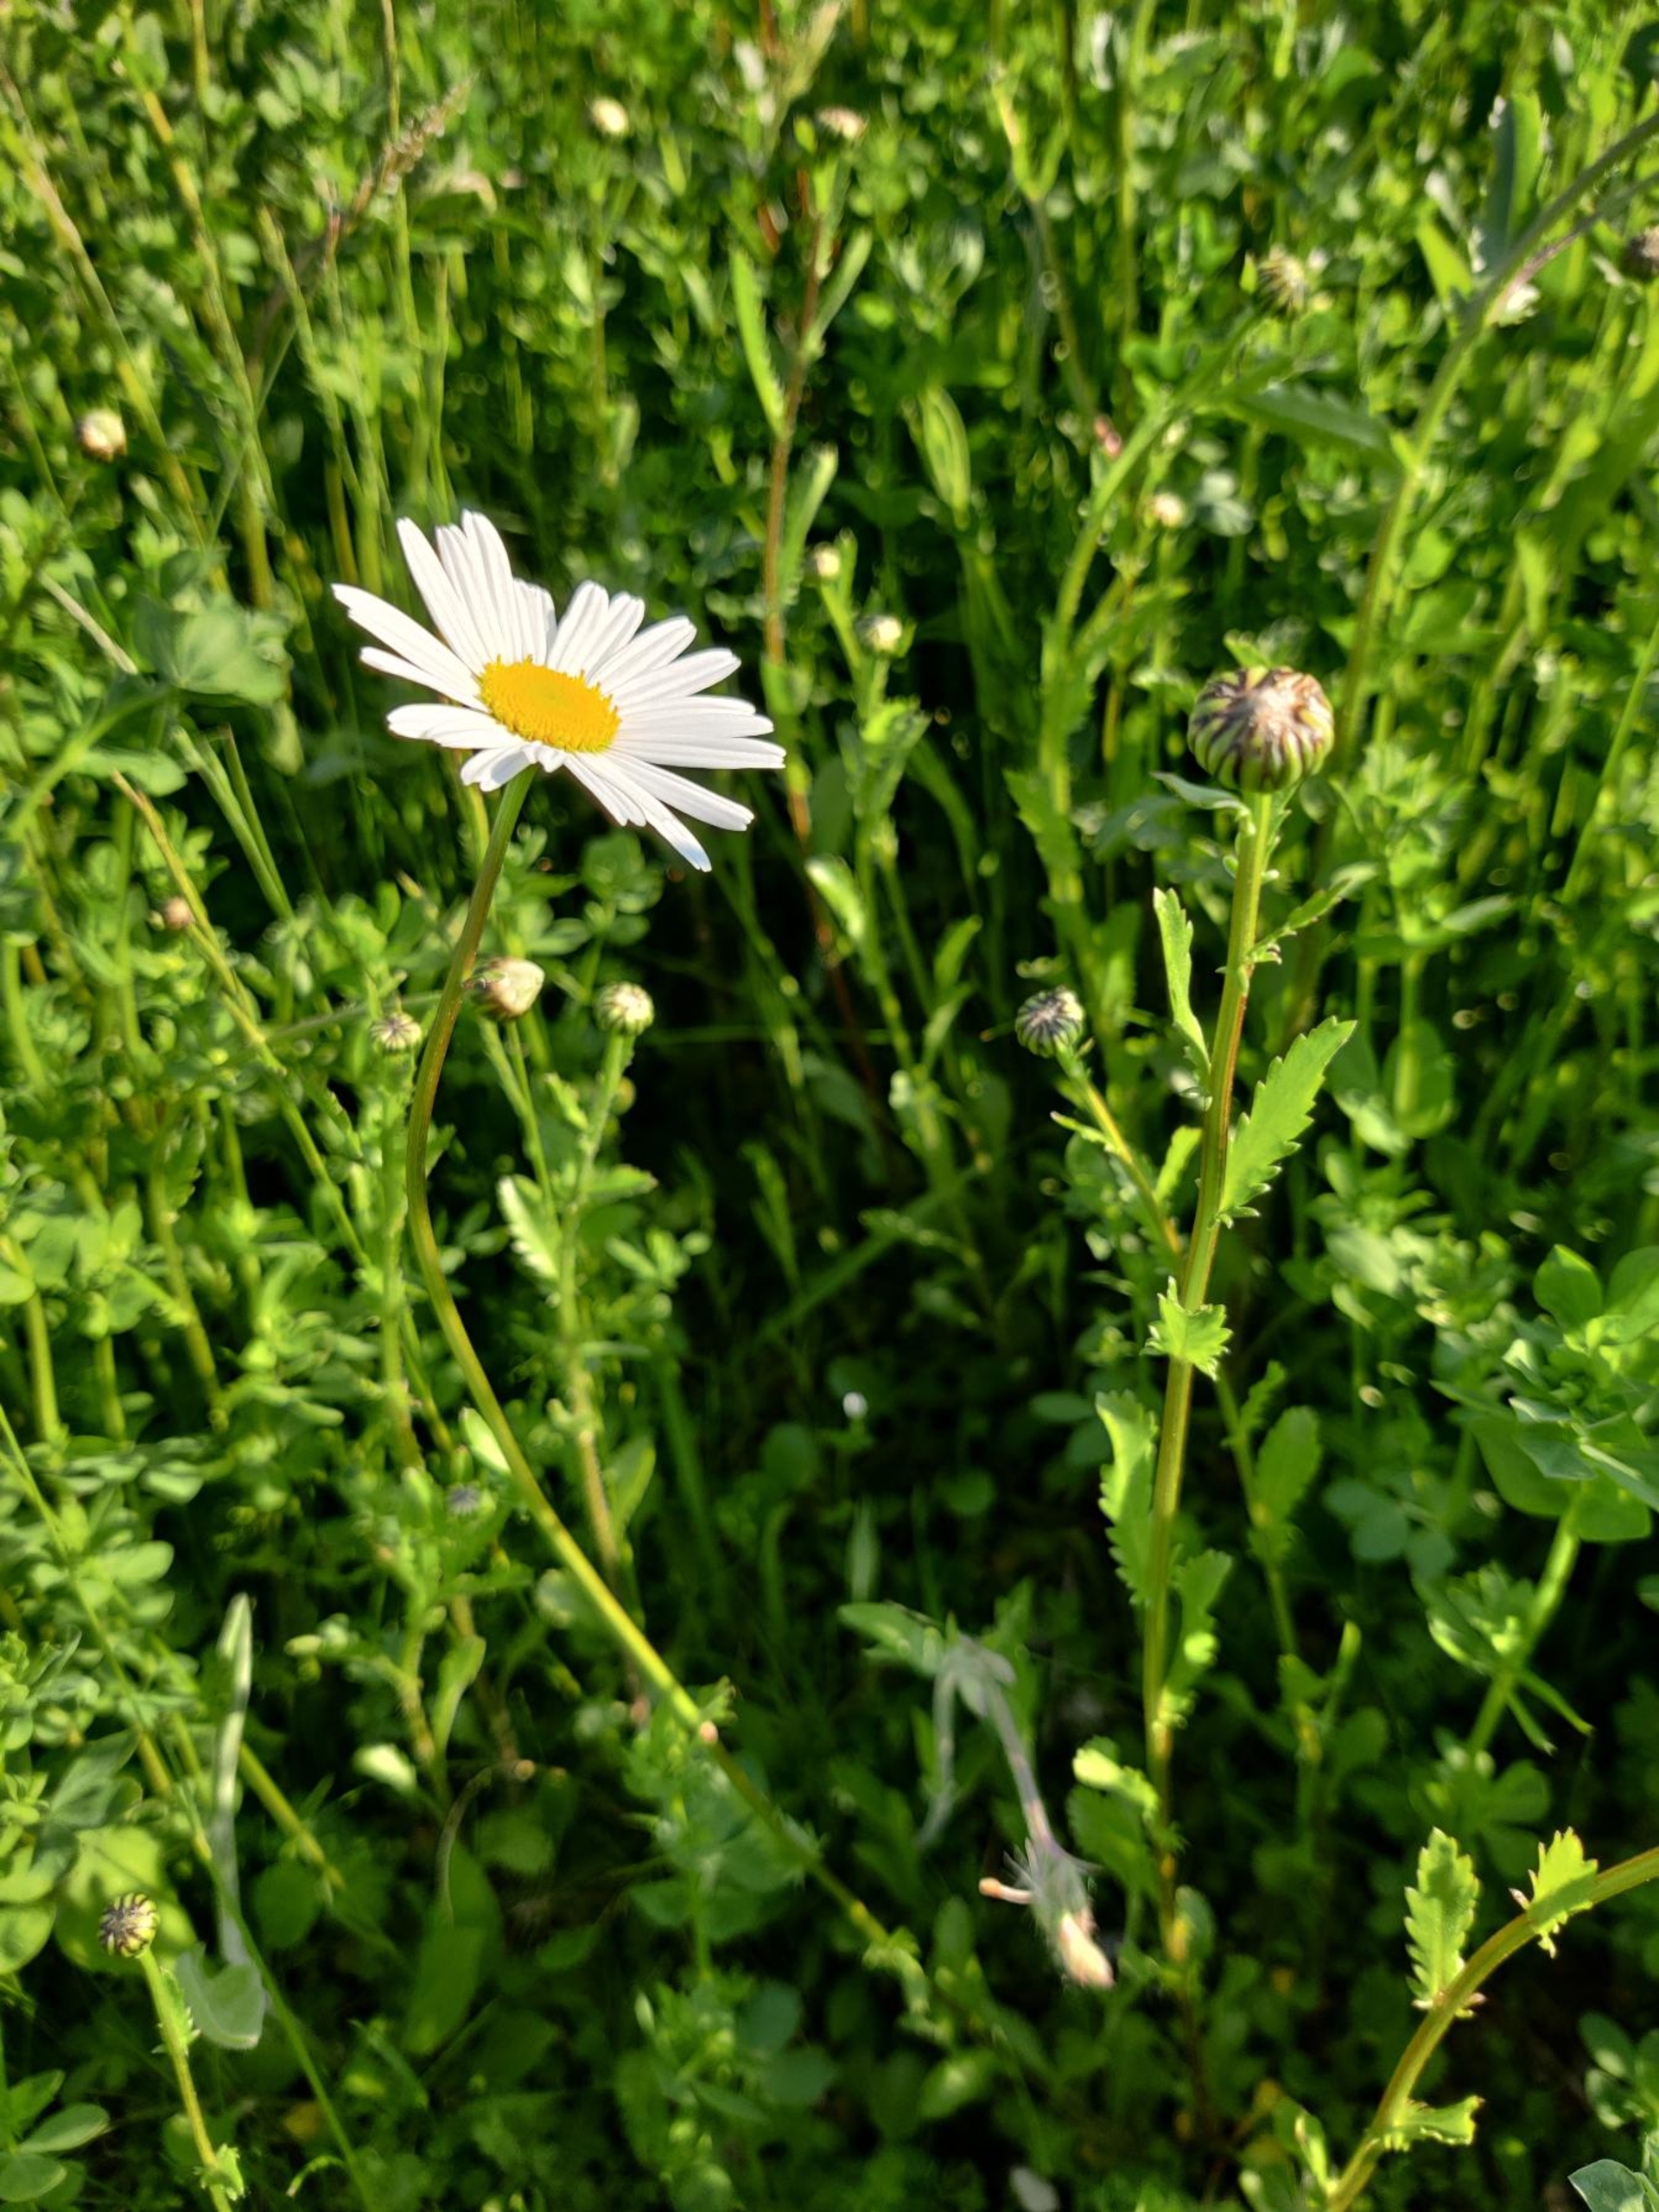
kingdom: Plantae
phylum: Tracheophyta
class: Magnoliopsida
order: Asterales
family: Asteraceae
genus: Leucanthemum
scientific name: Leucanthemum vulgare
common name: Hvid okseøje
